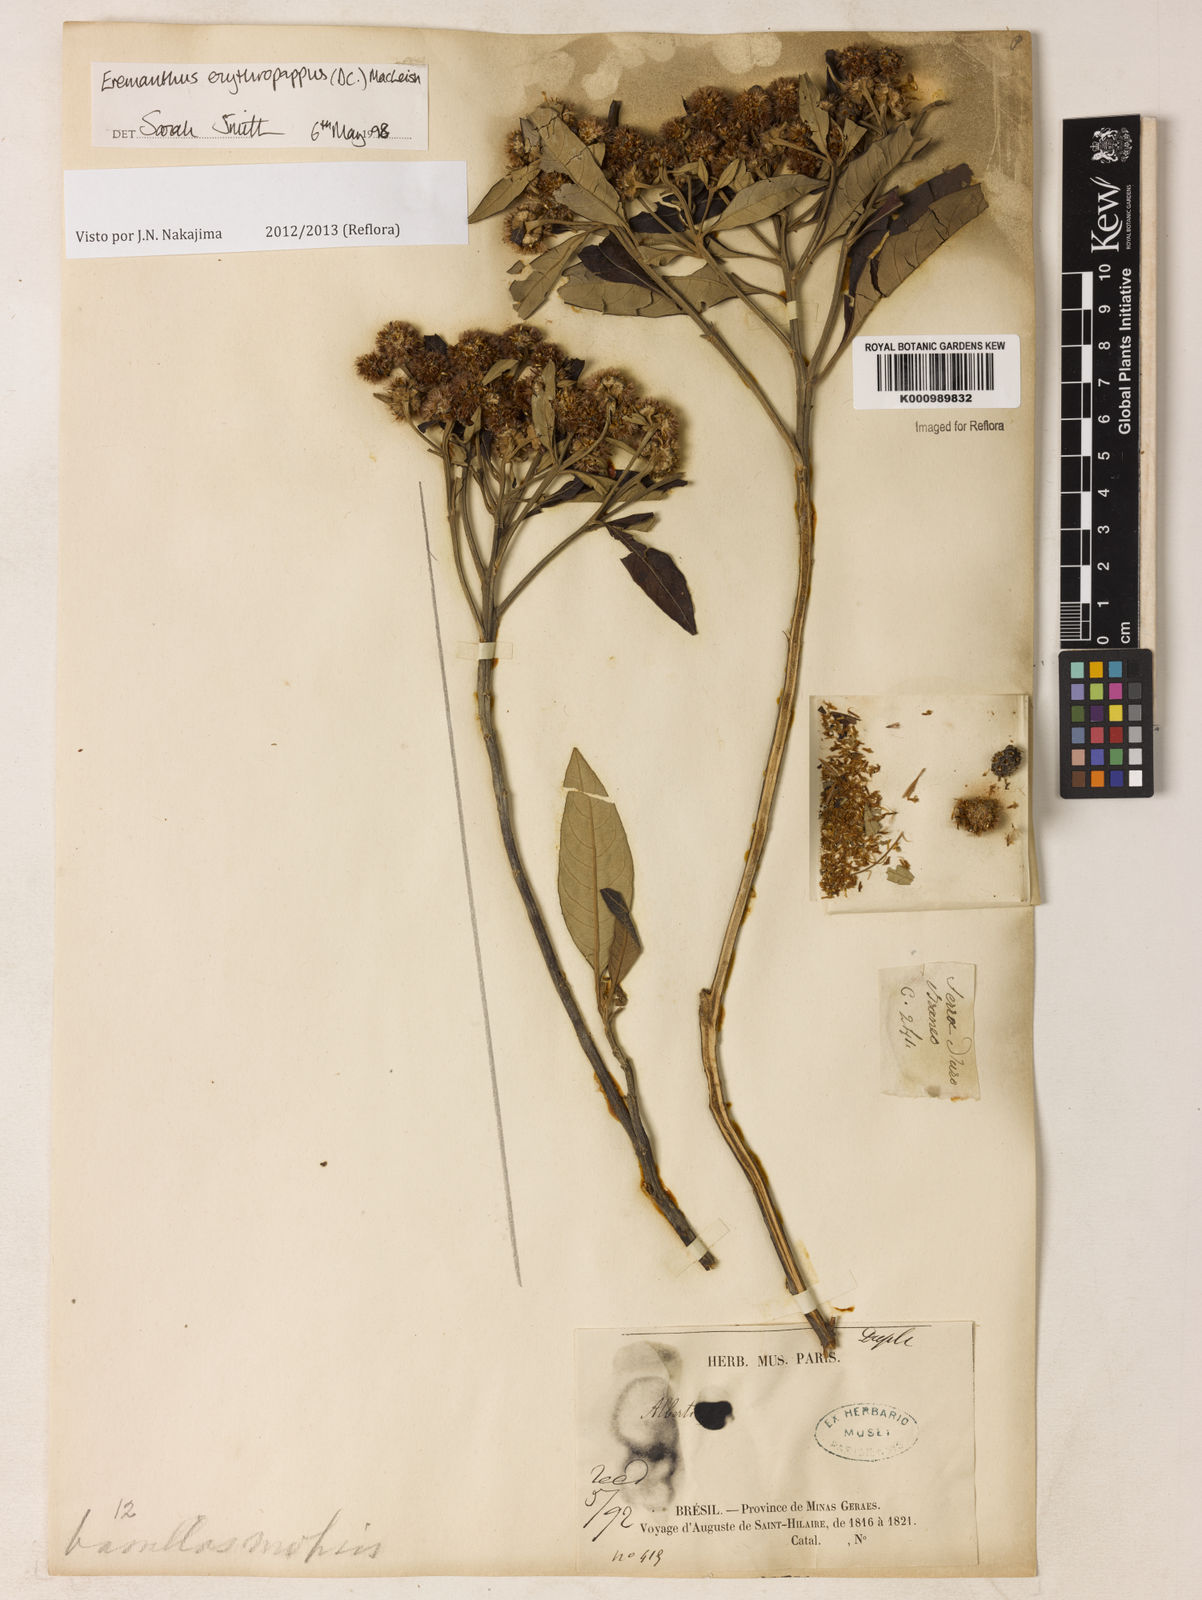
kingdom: Plantae
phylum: Tracheophyta
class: Magnoliopsida
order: Asterales
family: Asteraceae
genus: Eremanthus
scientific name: Eremanthus erythropappus
